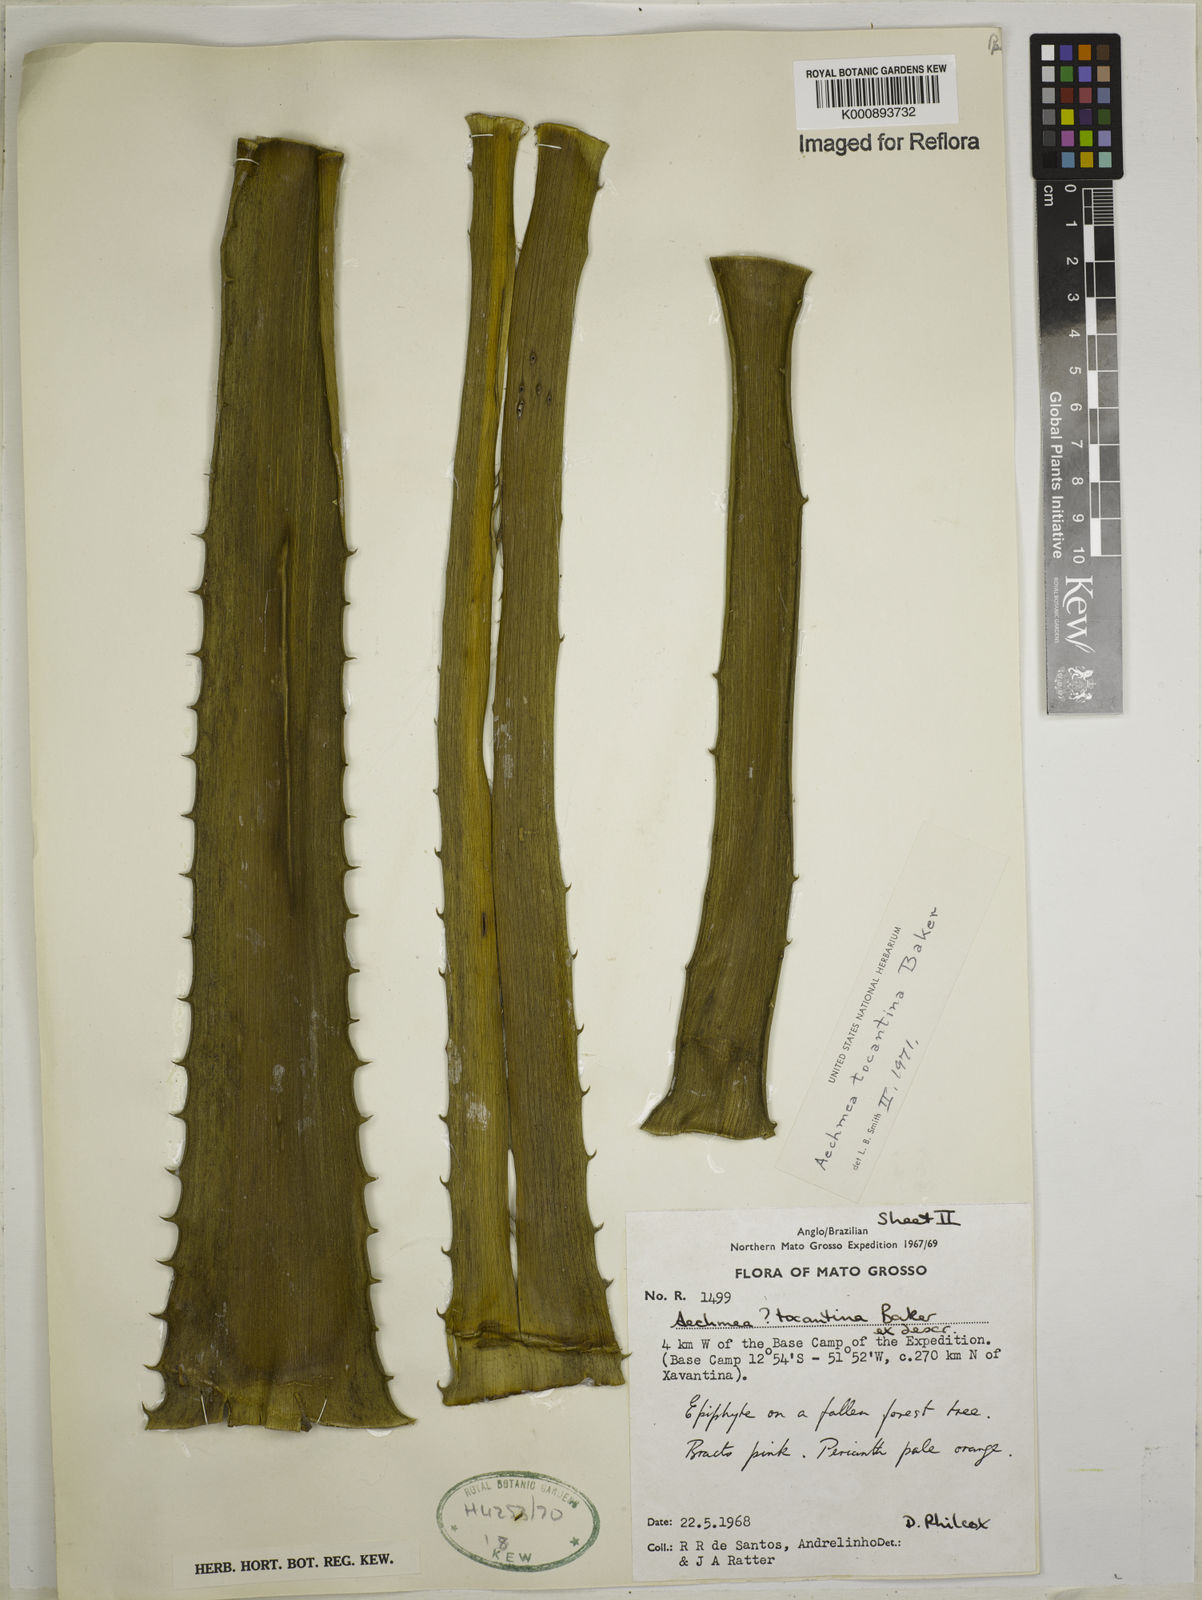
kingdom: Plantae
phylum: Tracheophyta
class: Liliopsida
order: Poales
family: Bromeliaceae
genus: Aechmea
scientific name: Aechmea tocantina
